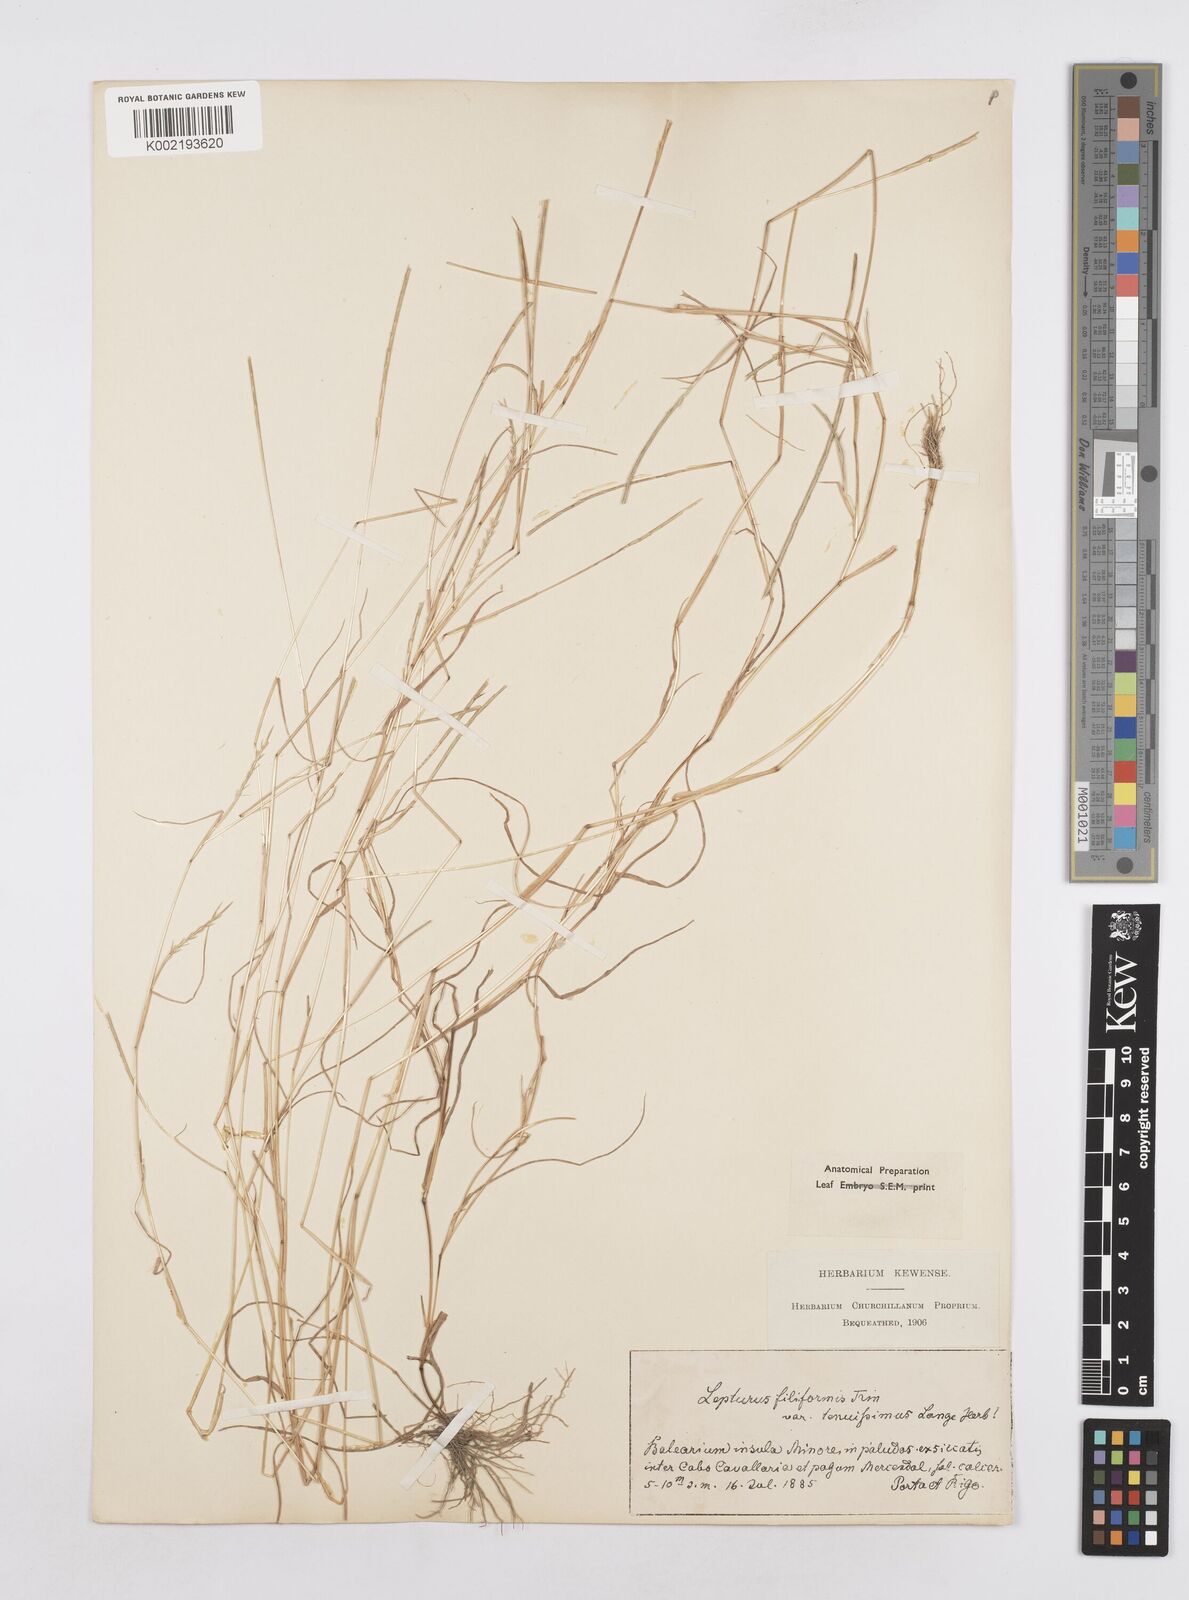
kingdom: Plantae
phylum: Tracheophyta
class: Liliopsida
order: Poales
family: Poaceae
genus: Parapholis
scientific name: Parapholis filiformis
